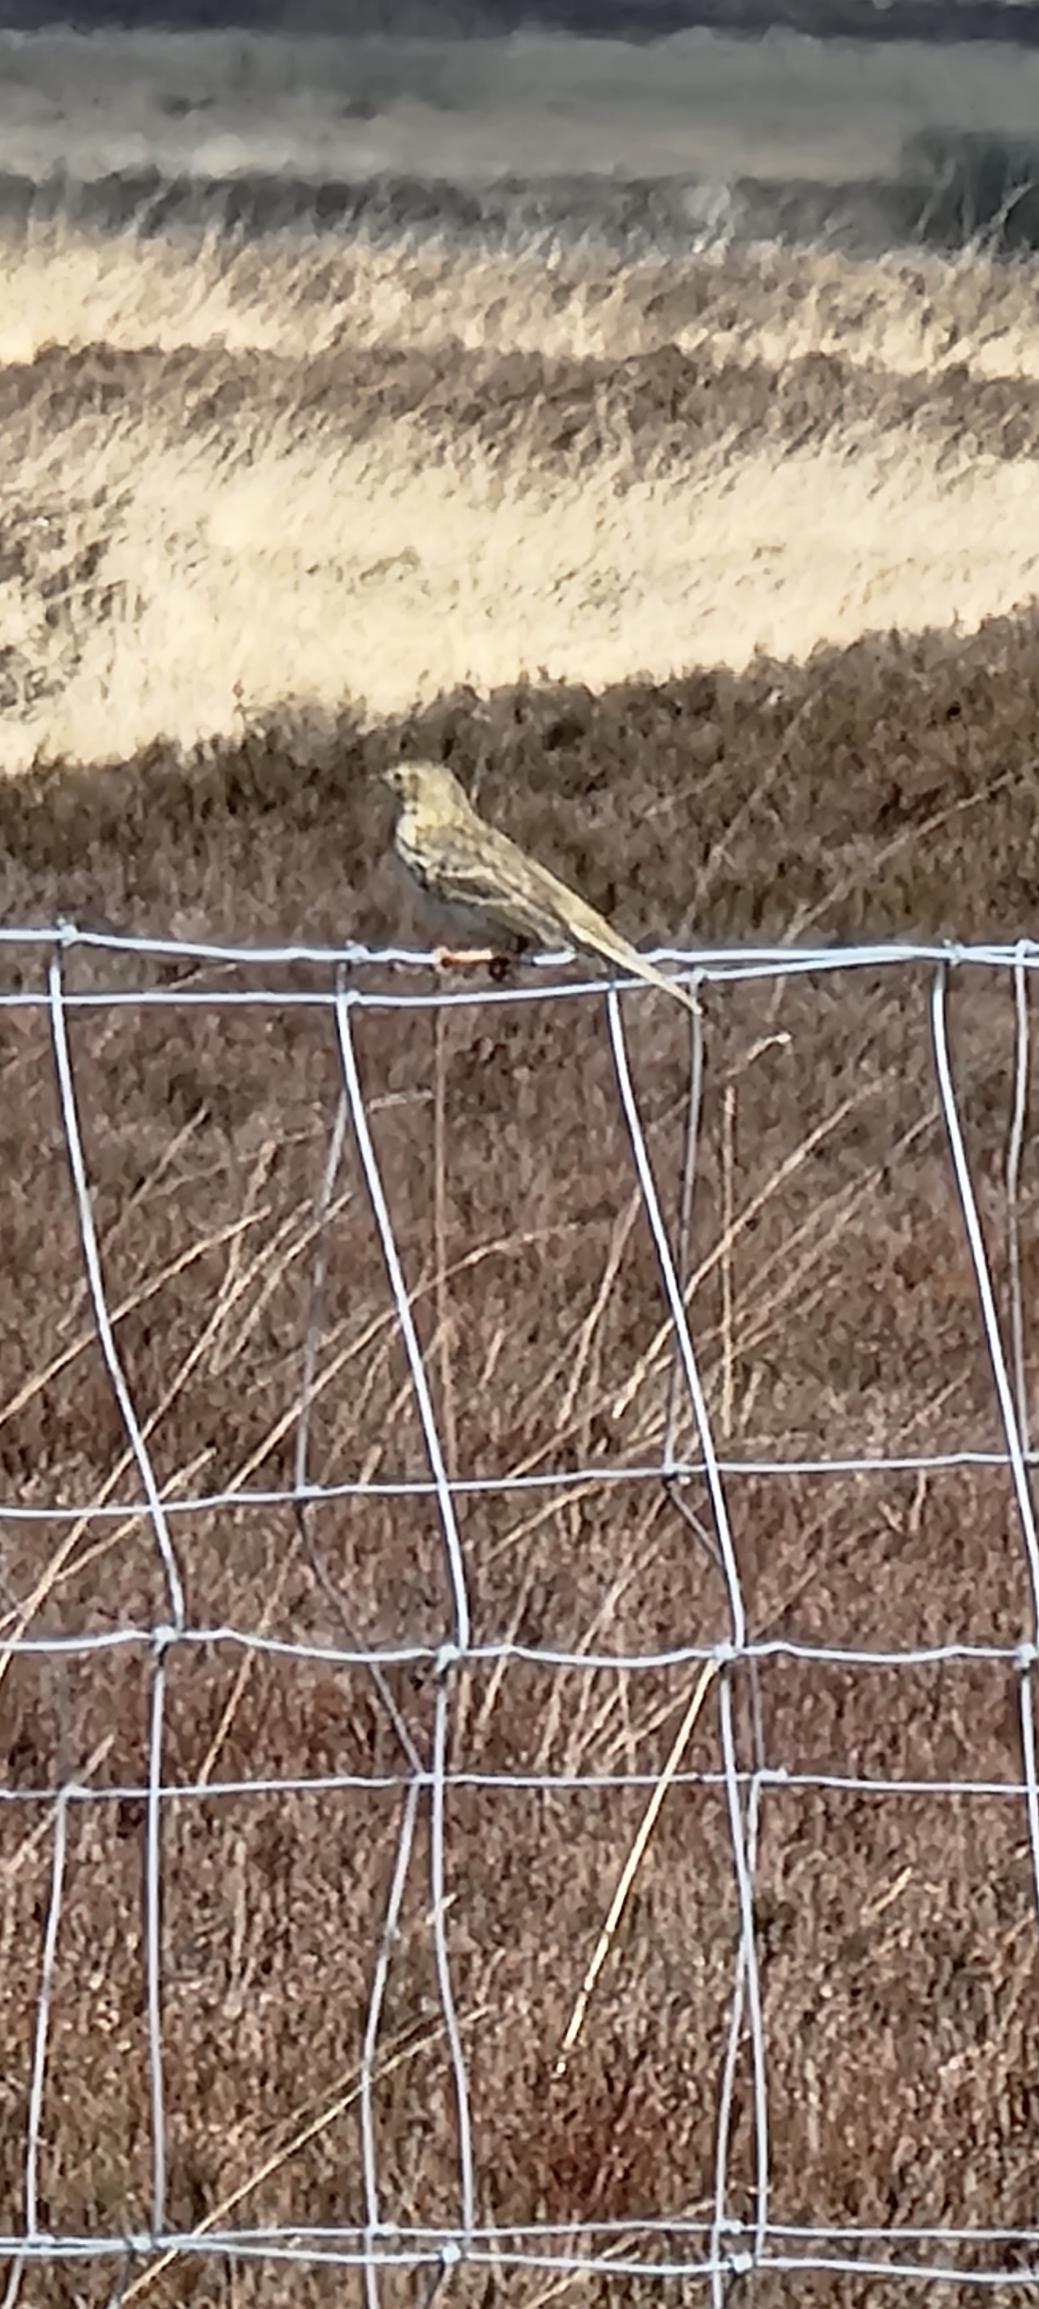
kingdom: Animalia
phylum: Chordata
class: Aves
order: Passeriformes
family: Motacillidae
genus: Anthus
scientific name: Anthus pratensis
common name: Engpiber
